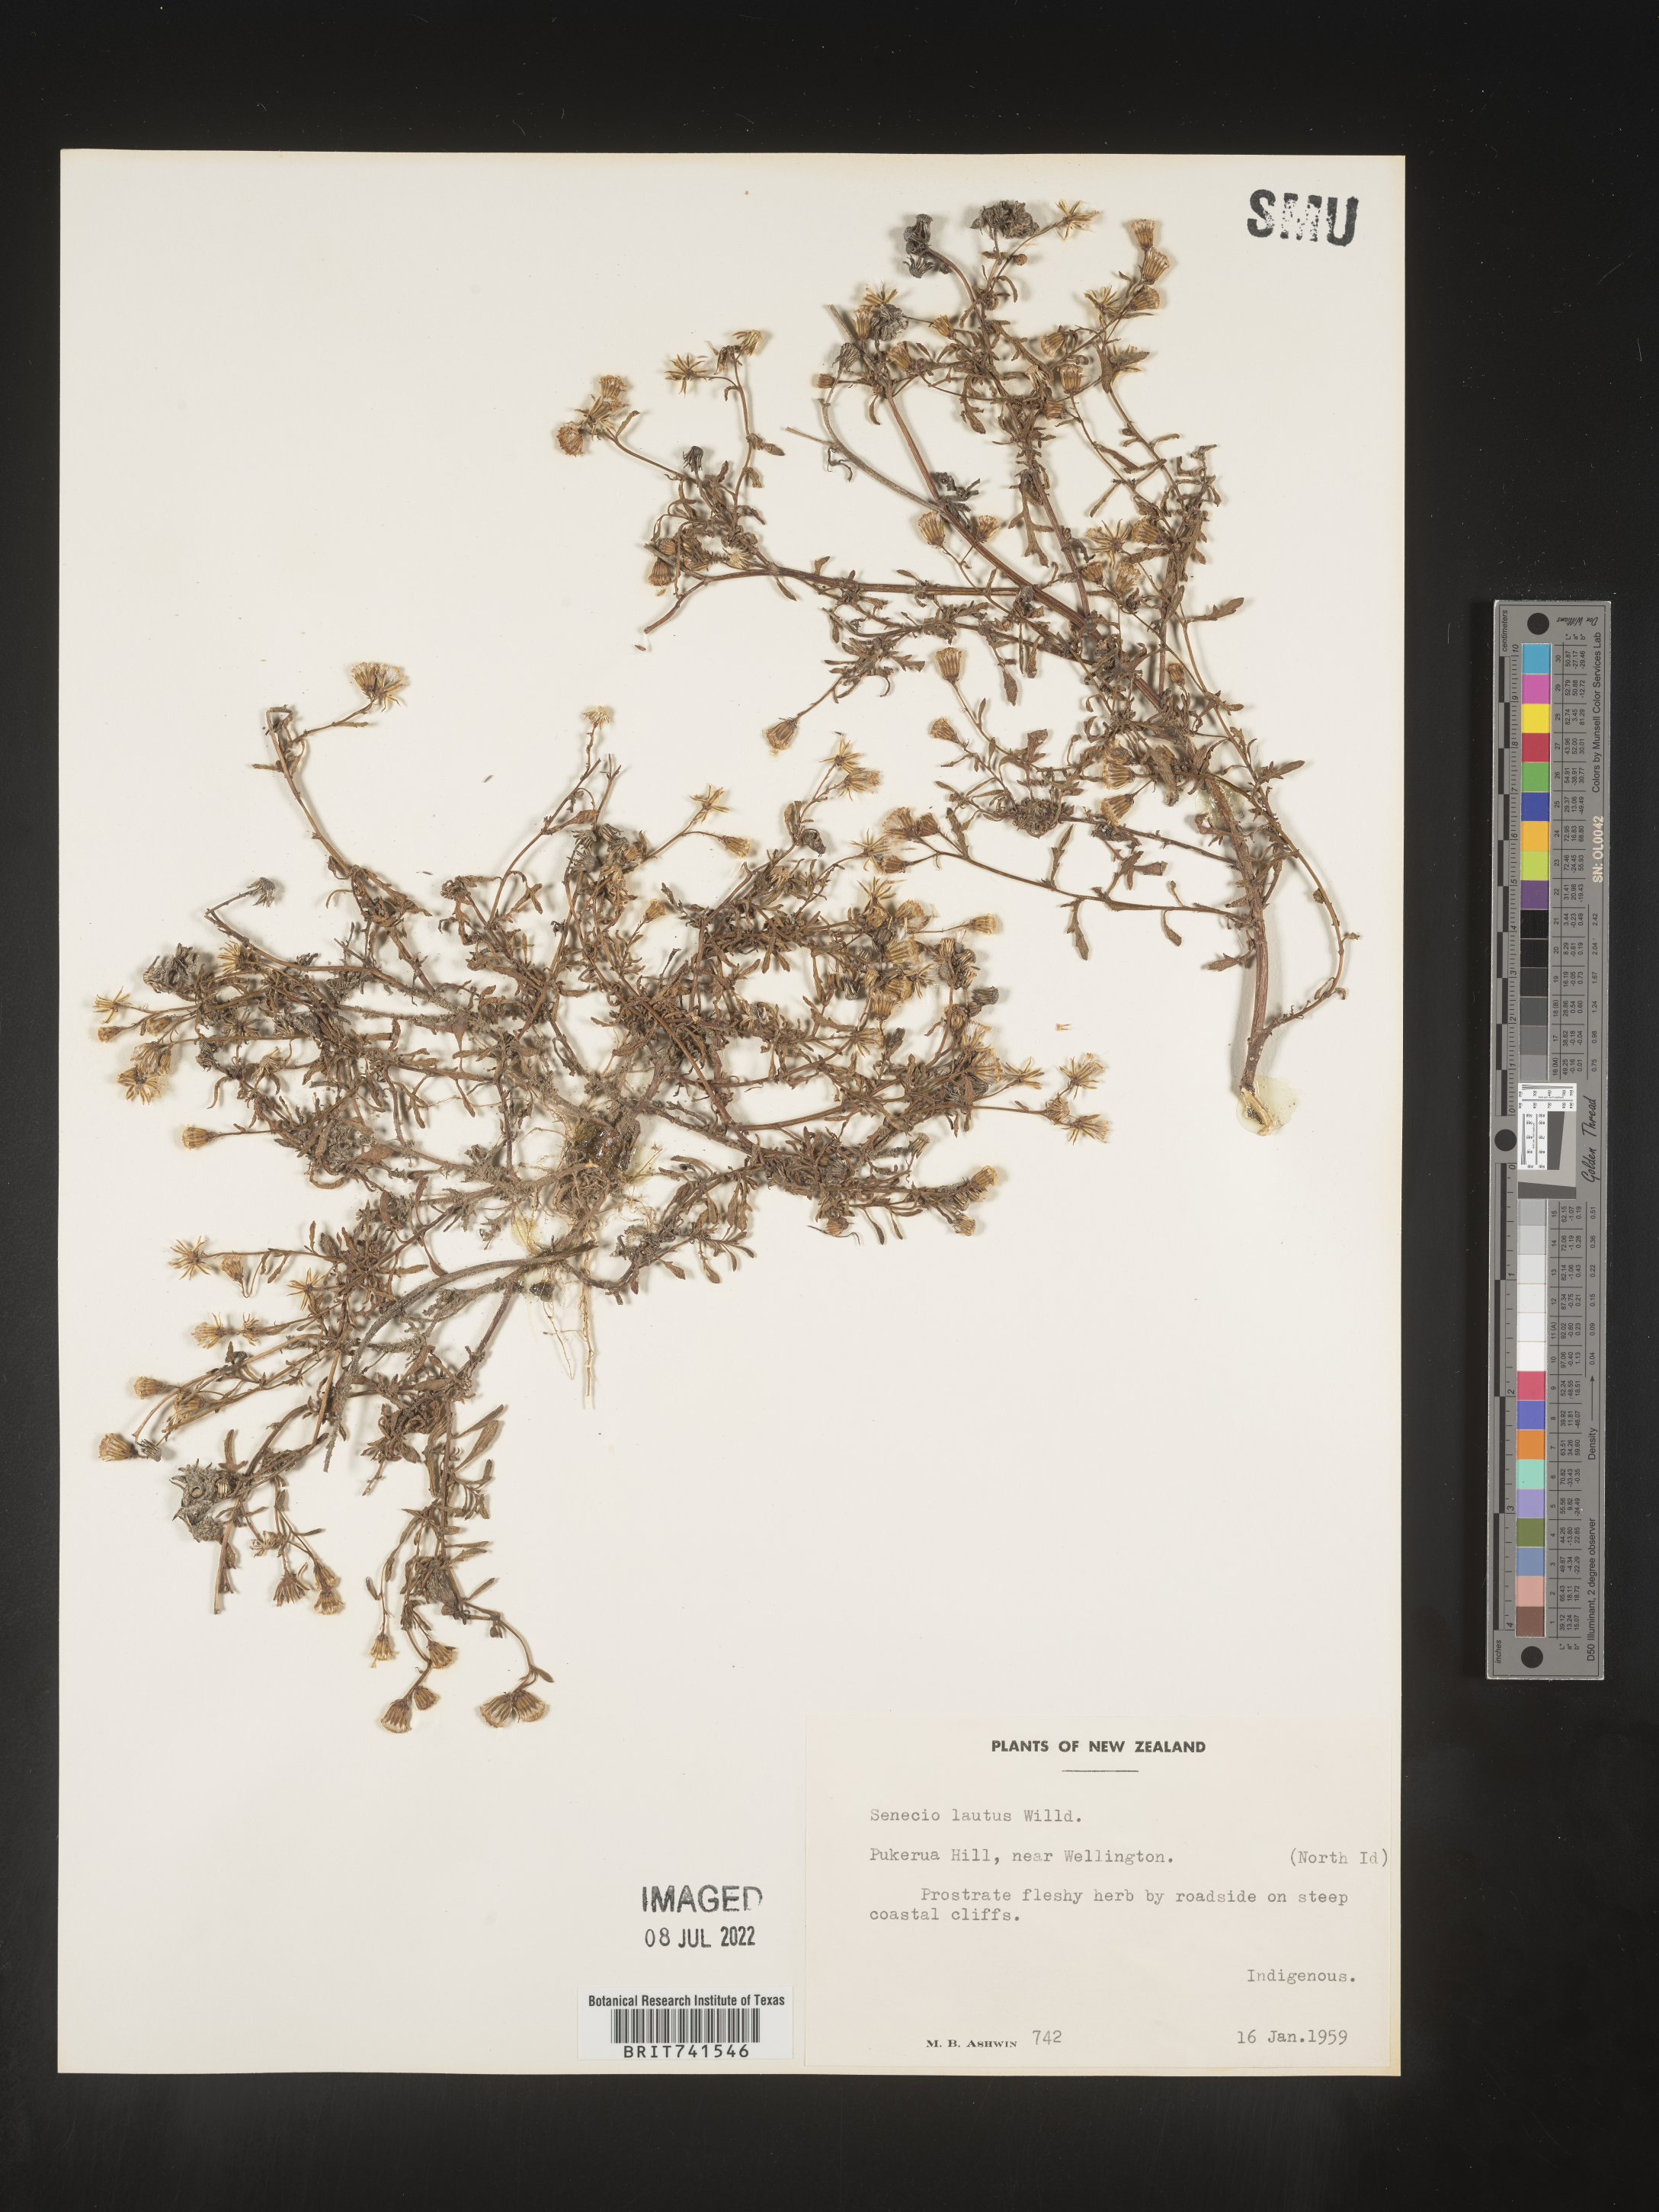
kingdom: Plantae
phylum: Tracheophyta
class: Magnoliopsida
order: Asterales
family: Asteraceae
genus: Senecio
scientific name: Senecio
